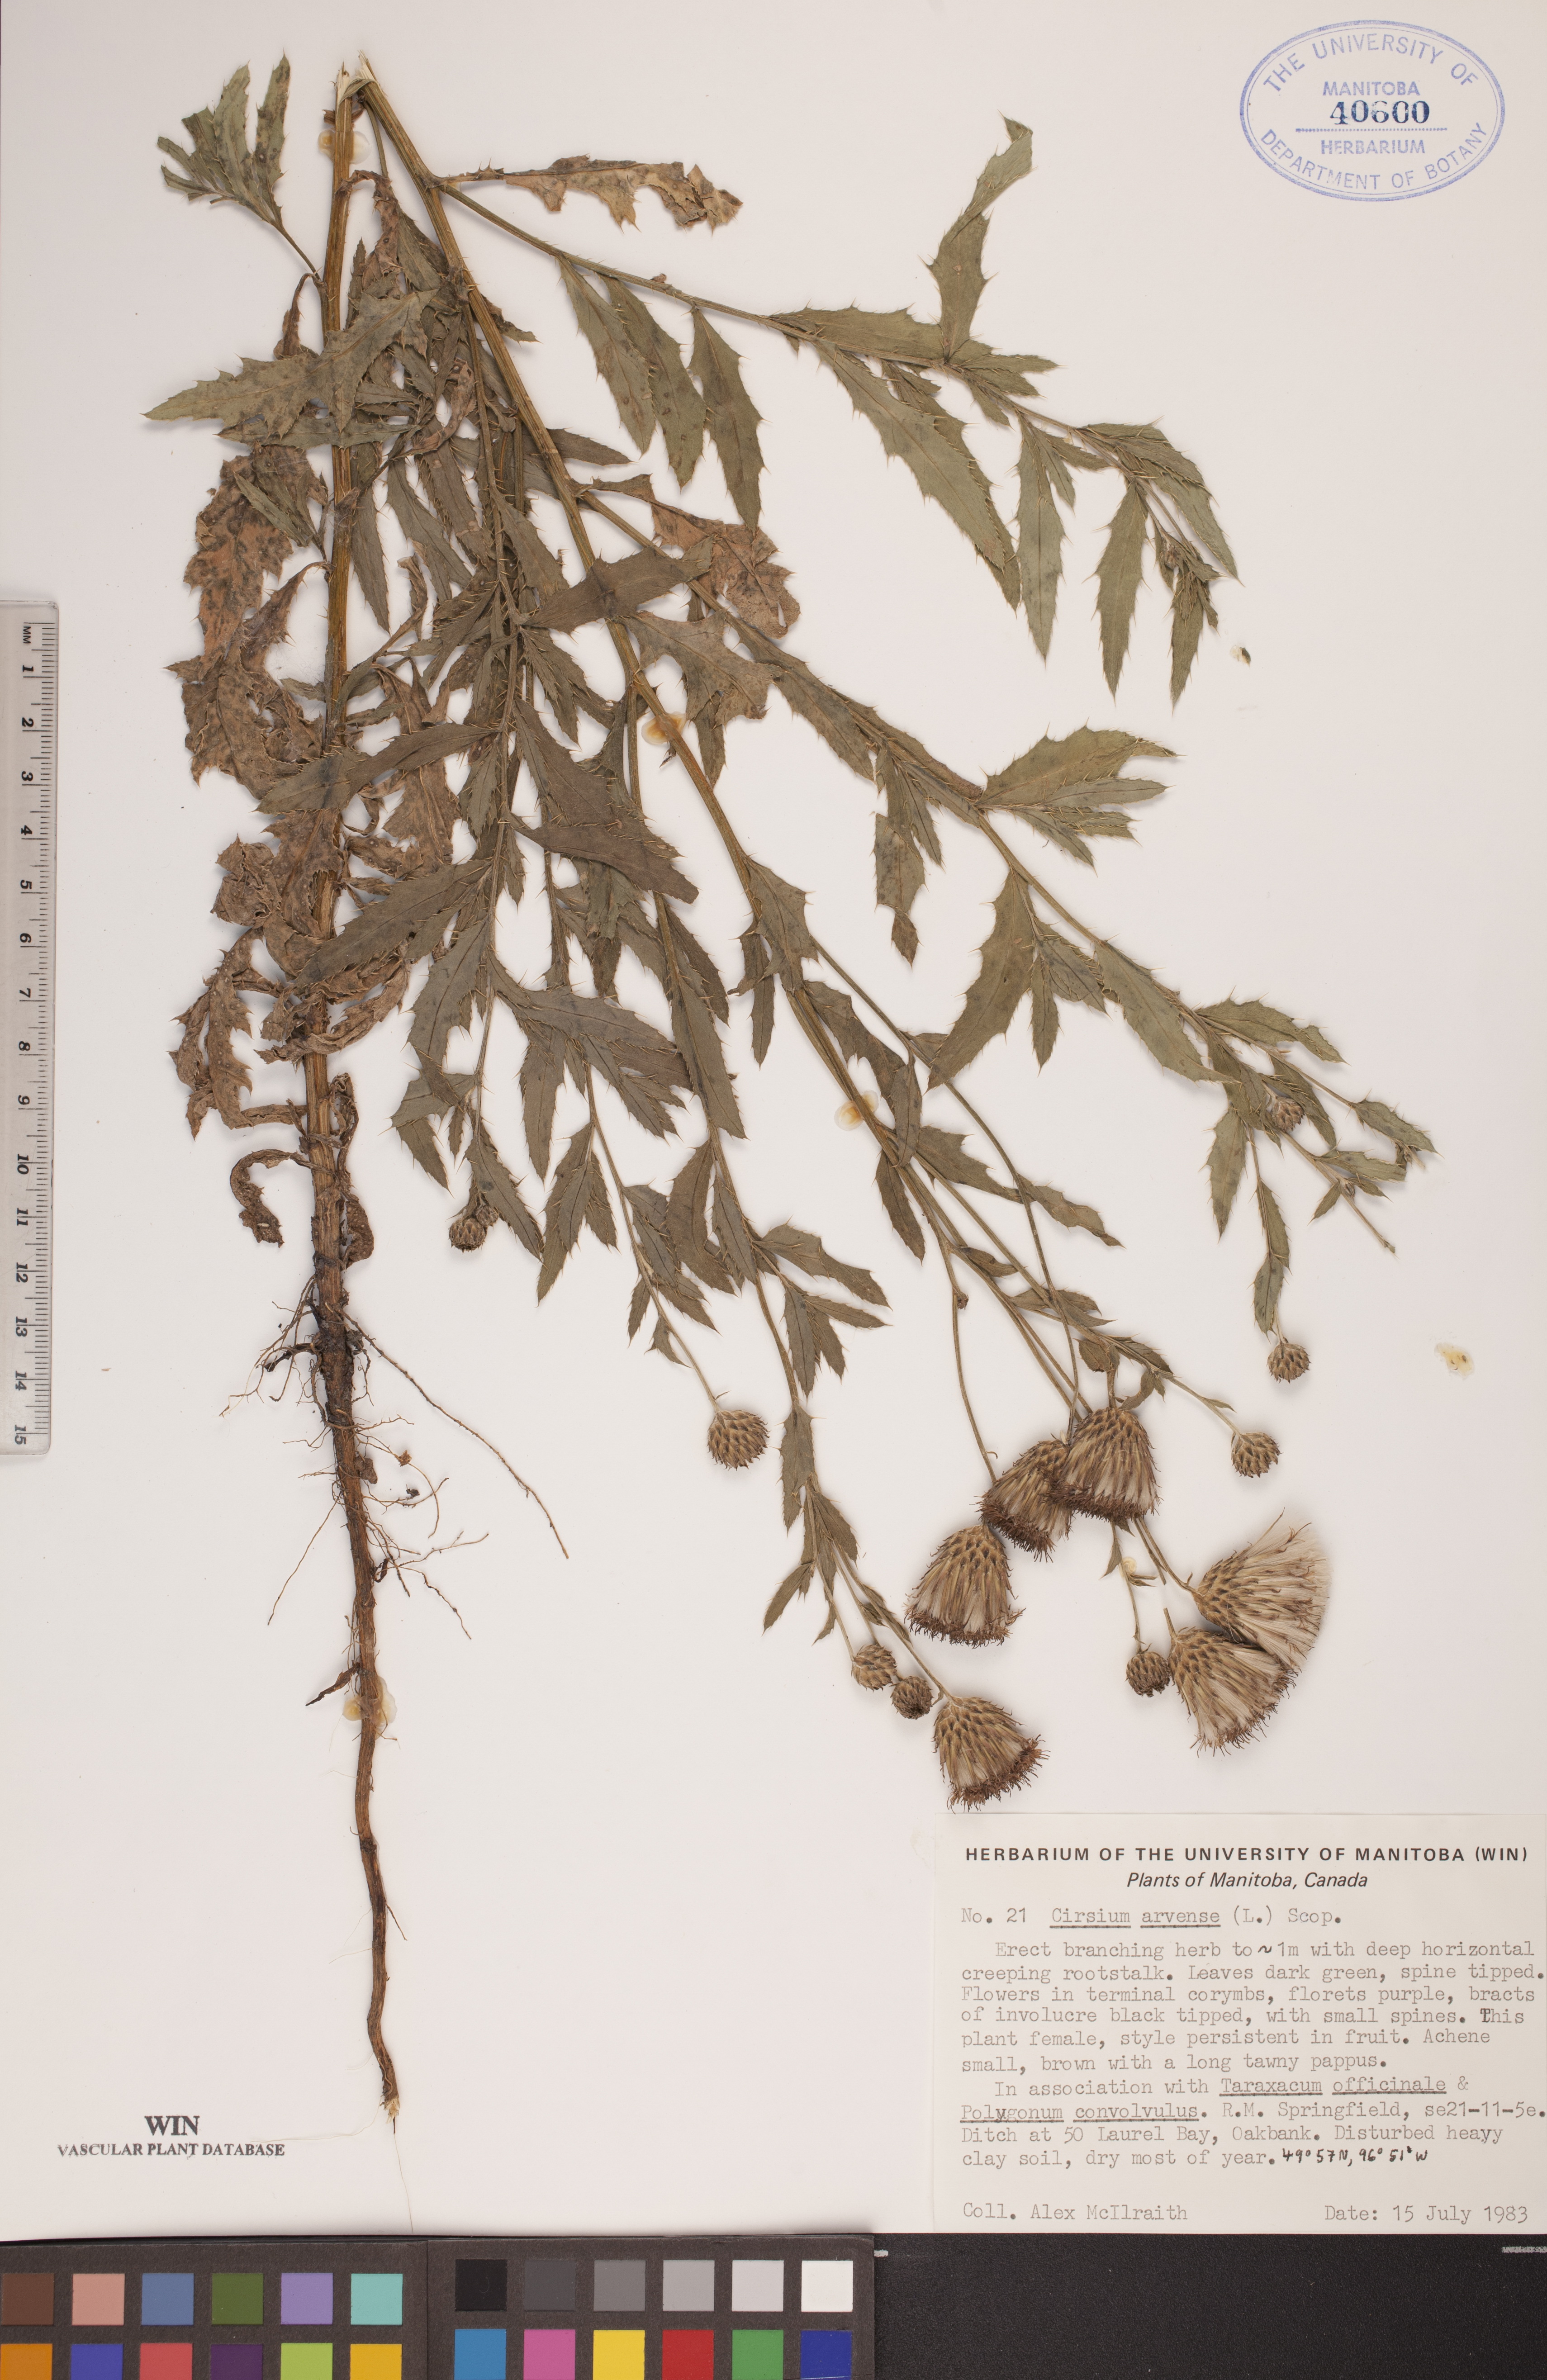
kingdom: Plantae
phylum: Tracheophyta
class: Magnoliopsida
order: Asterales
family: Asteraceae
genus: Cirsium
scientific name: Cirsium arvense
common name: Creeping thistle
